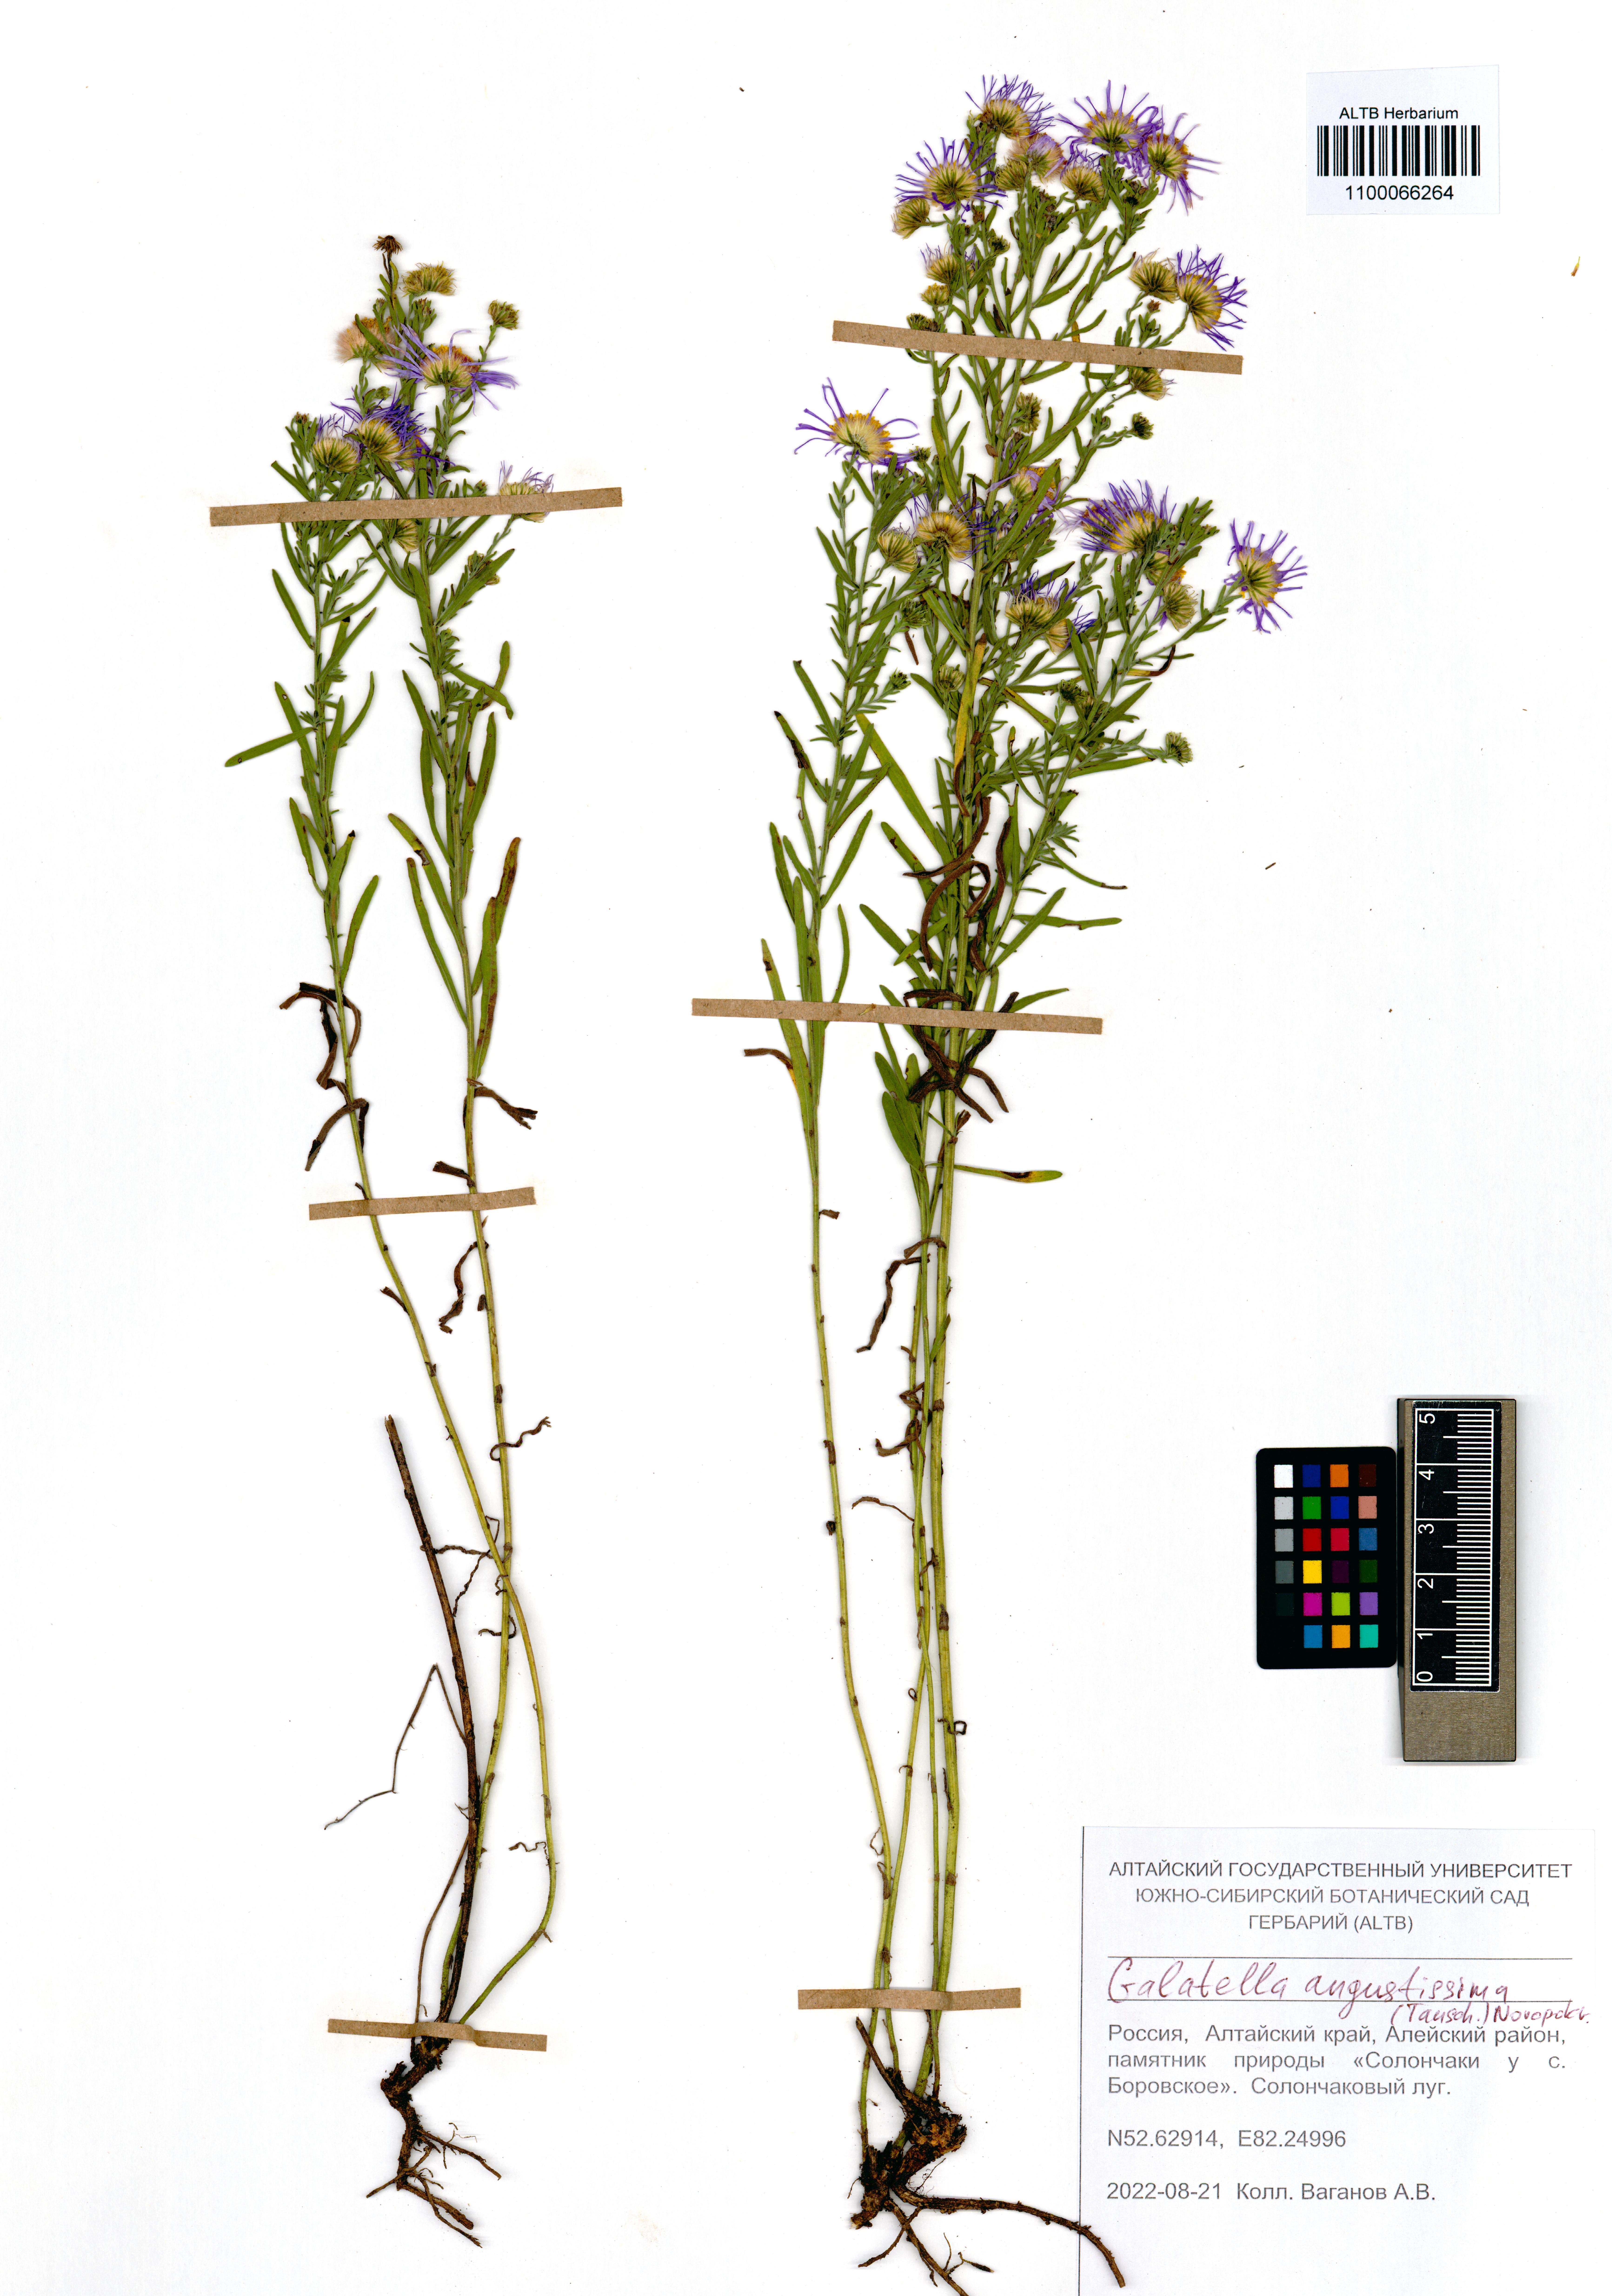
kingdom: Plantae
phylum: Tracheophyta
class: Magnoliopsida
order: Asterales
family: Asteraceae
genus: Galatella
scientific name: Galatella angustissima
